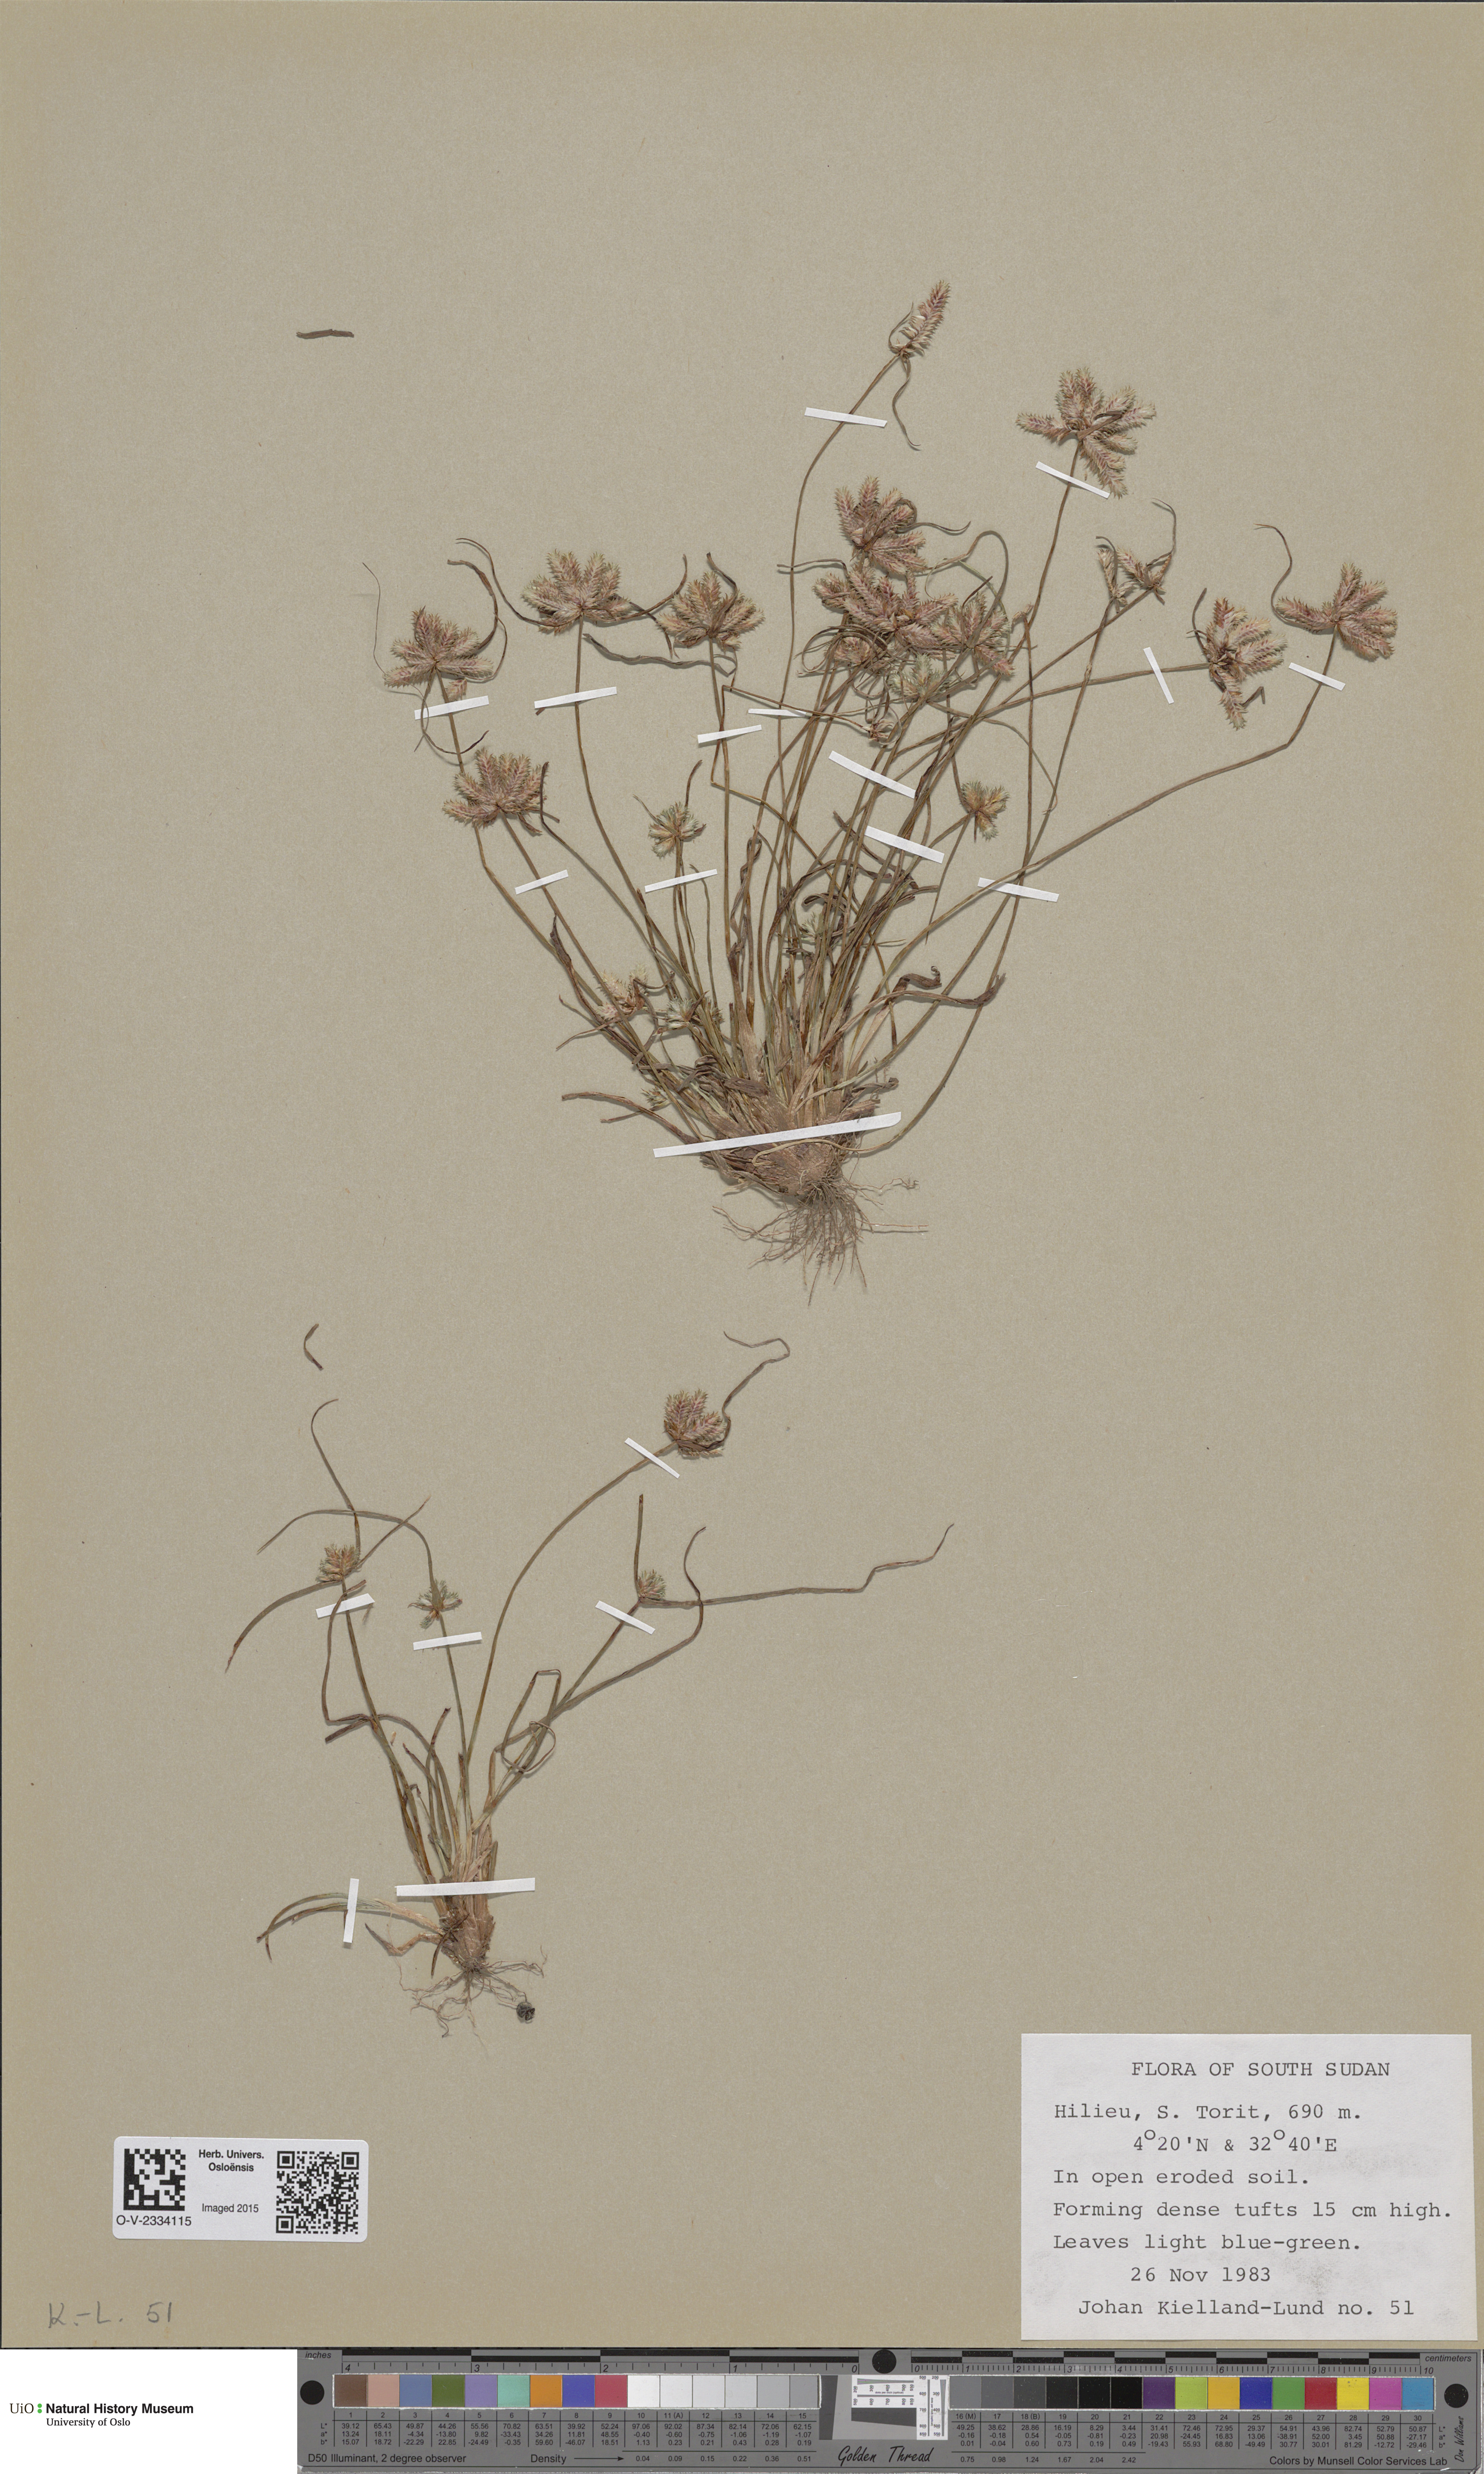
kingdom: Plantae
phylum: Tracheophyta
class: Magnoliopsida
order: Saxifragales
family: Saxifragaceae
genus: Saxifraga
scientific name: Saxifraga cernua
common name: Drooping saxifrage
